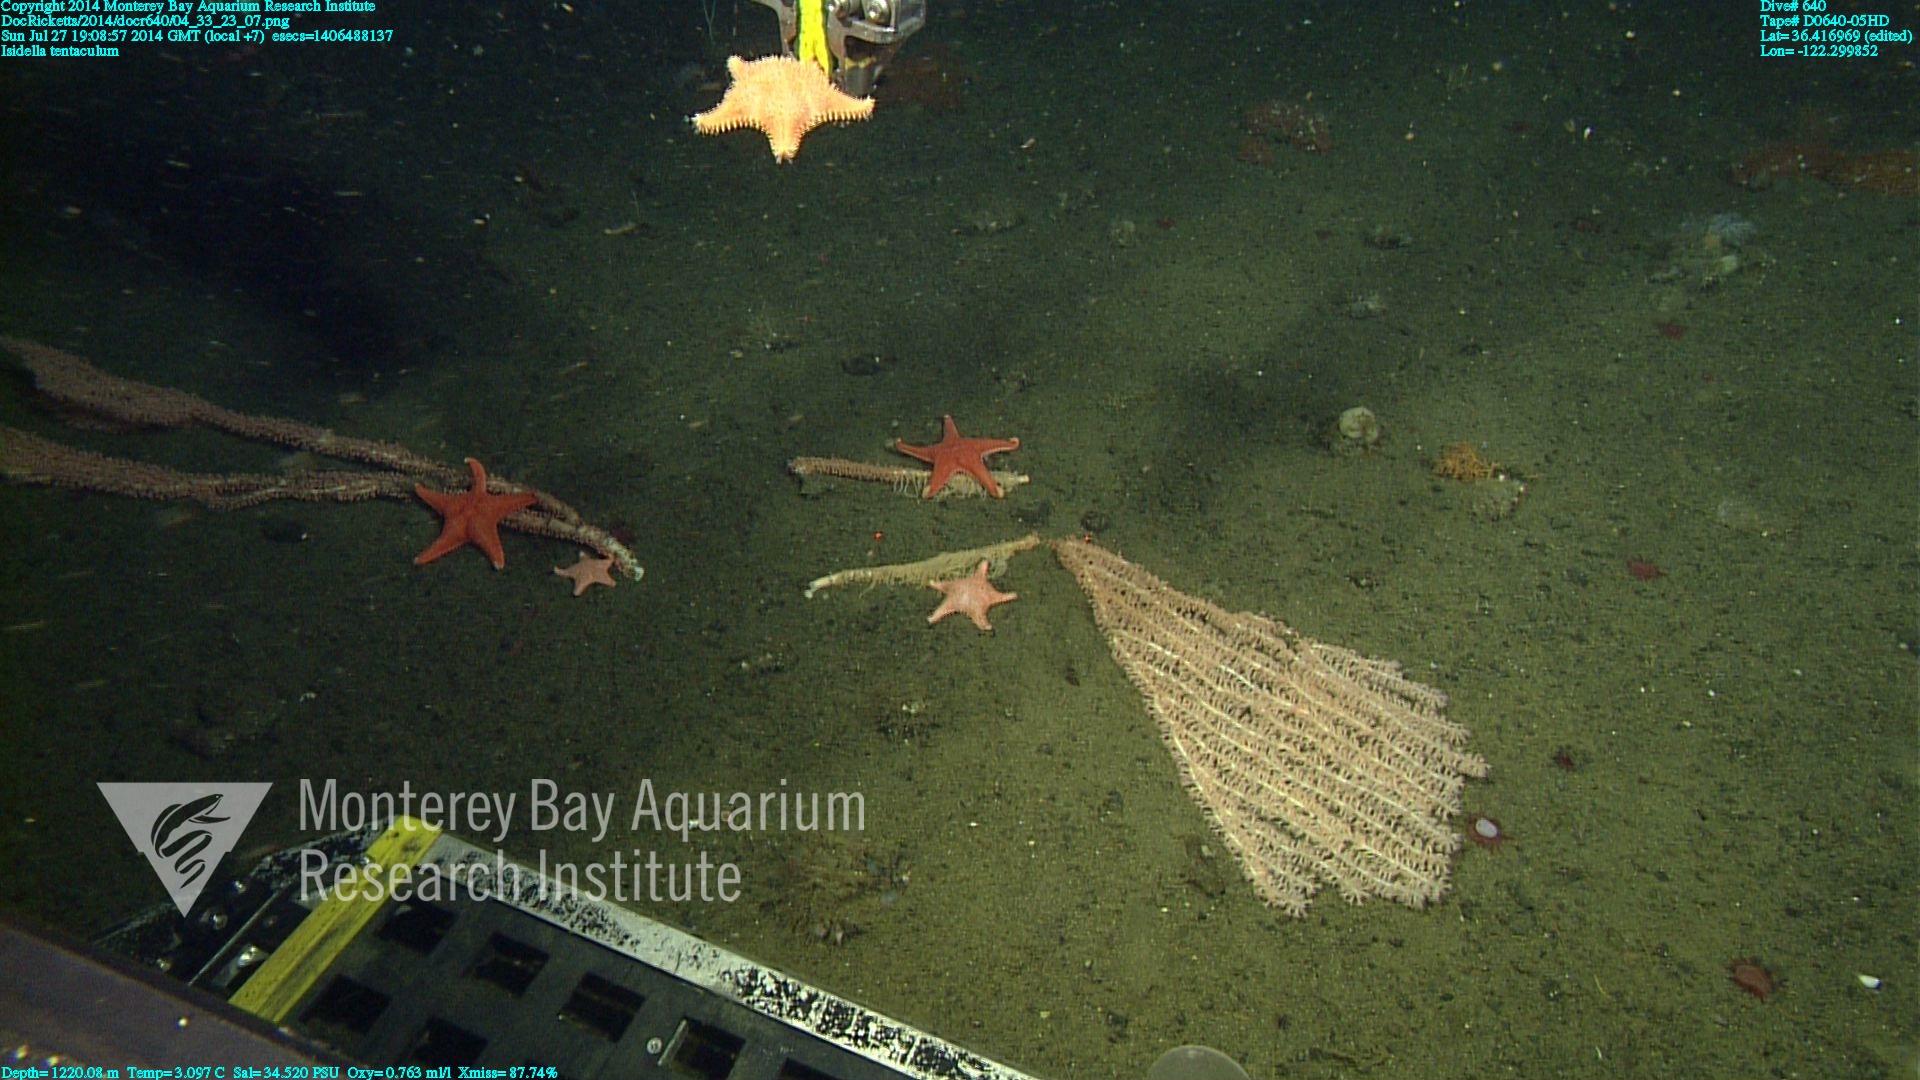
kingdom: Animalia
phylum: Cnidaria
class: Anthozoa
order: Scleralcyonacea
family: Keratoisididae
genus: Isidella
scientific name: Isidella tentaculum
